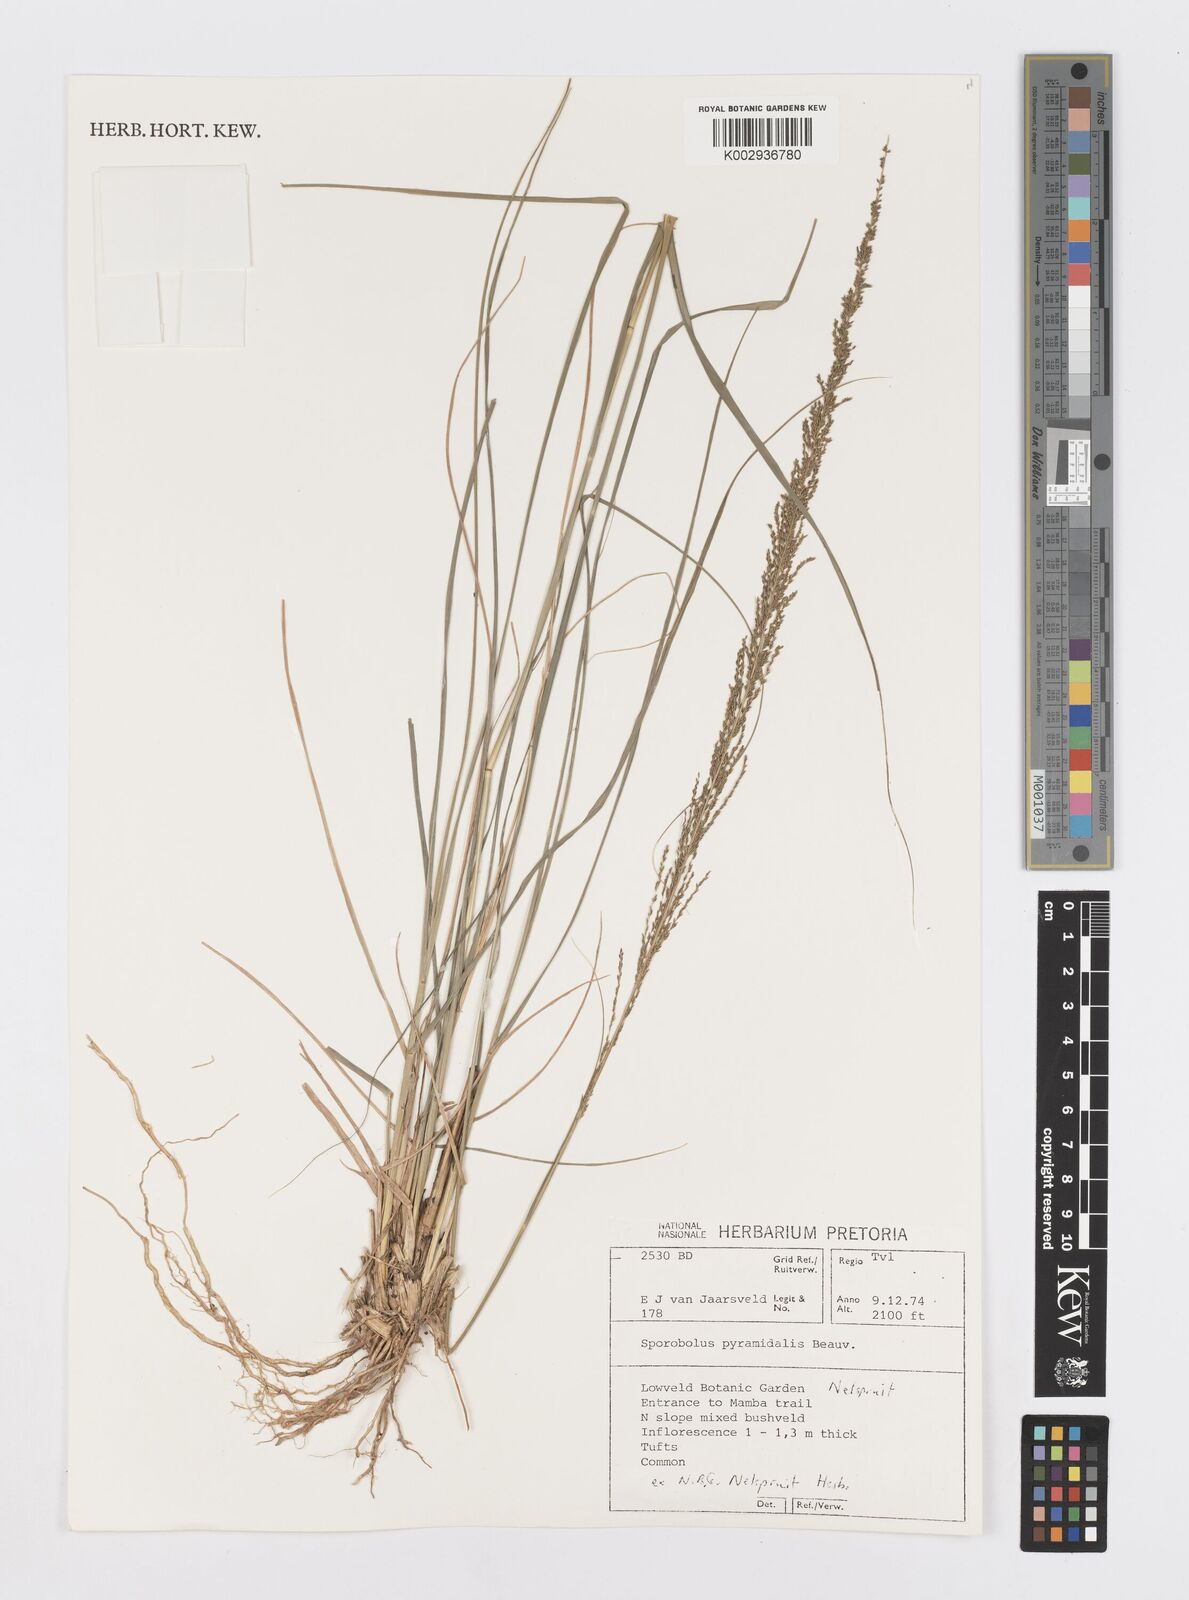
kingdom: Plantae
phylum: Tracheophyta
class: Liliopsida
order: Poales
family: Poaceae
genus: Sporobolus
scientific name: Sporobolus pyramidalis
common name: West indian dropseed
